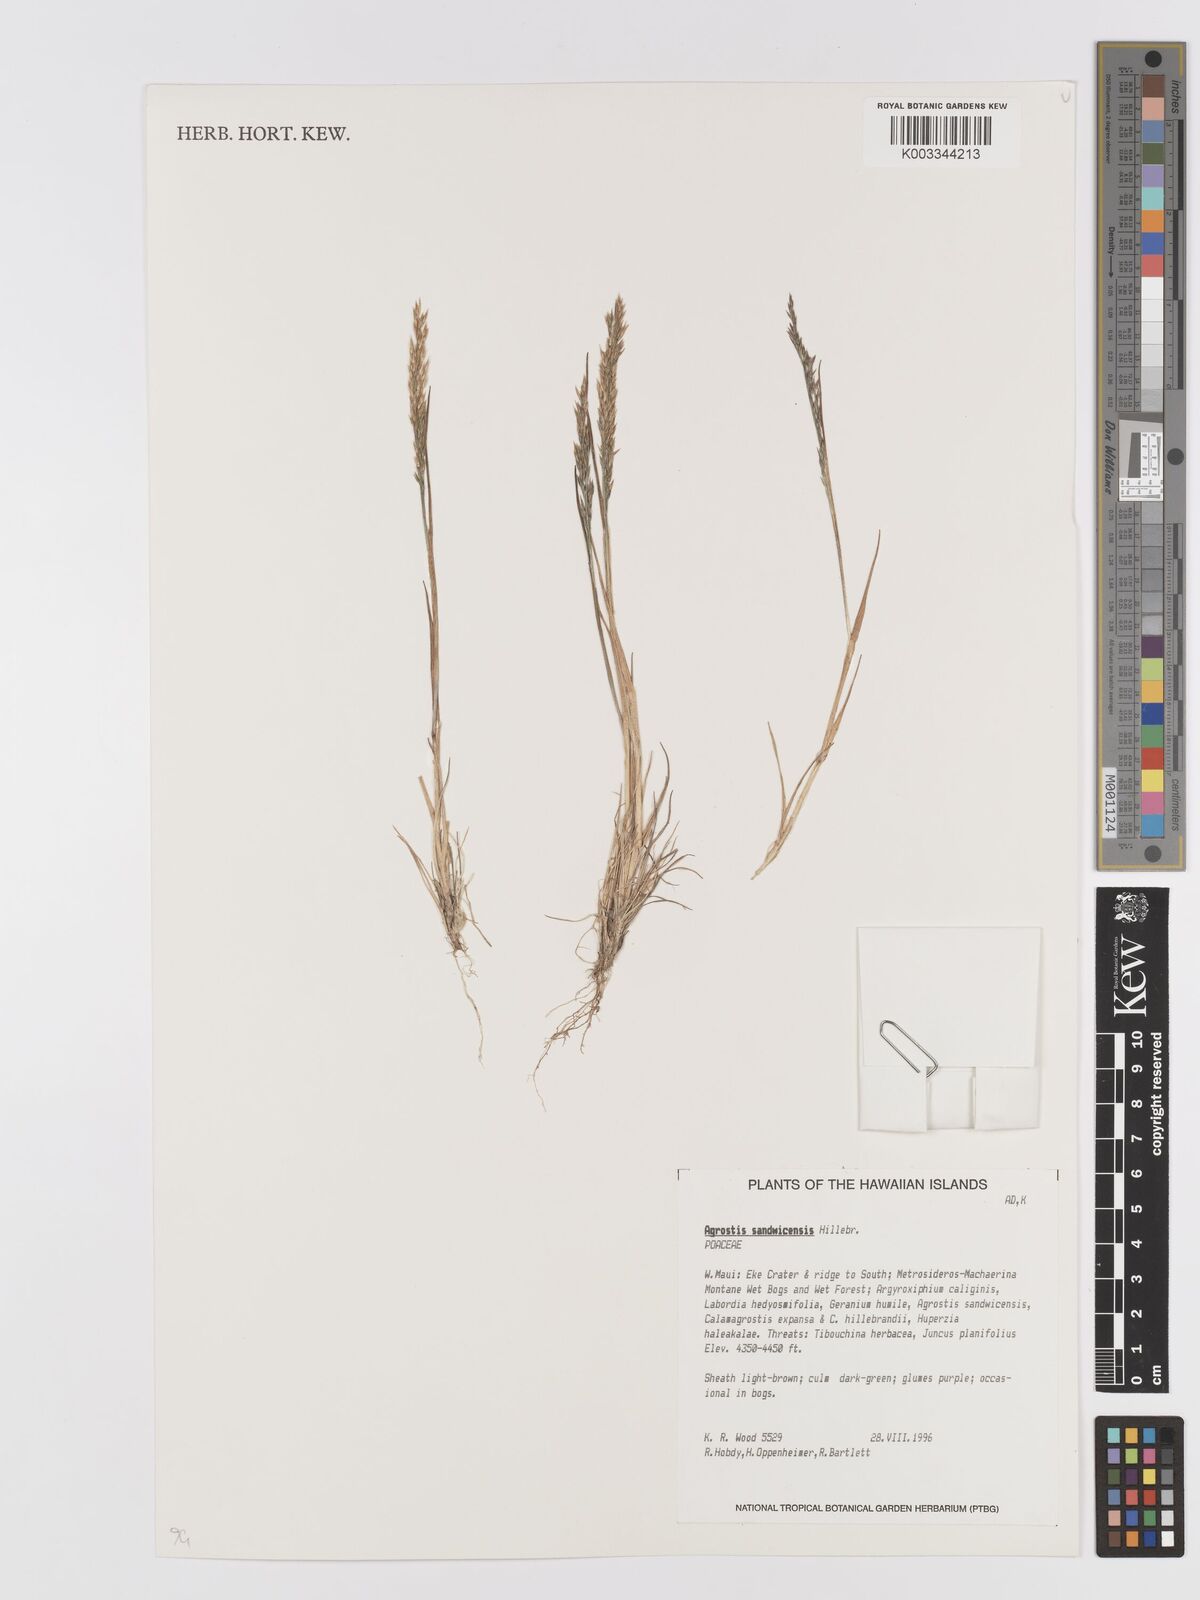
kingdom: Plantae
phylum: Tracheophyta
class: Liliopsida
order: Poales
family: Poaceae
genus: Agrostis
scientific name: Agrostis
